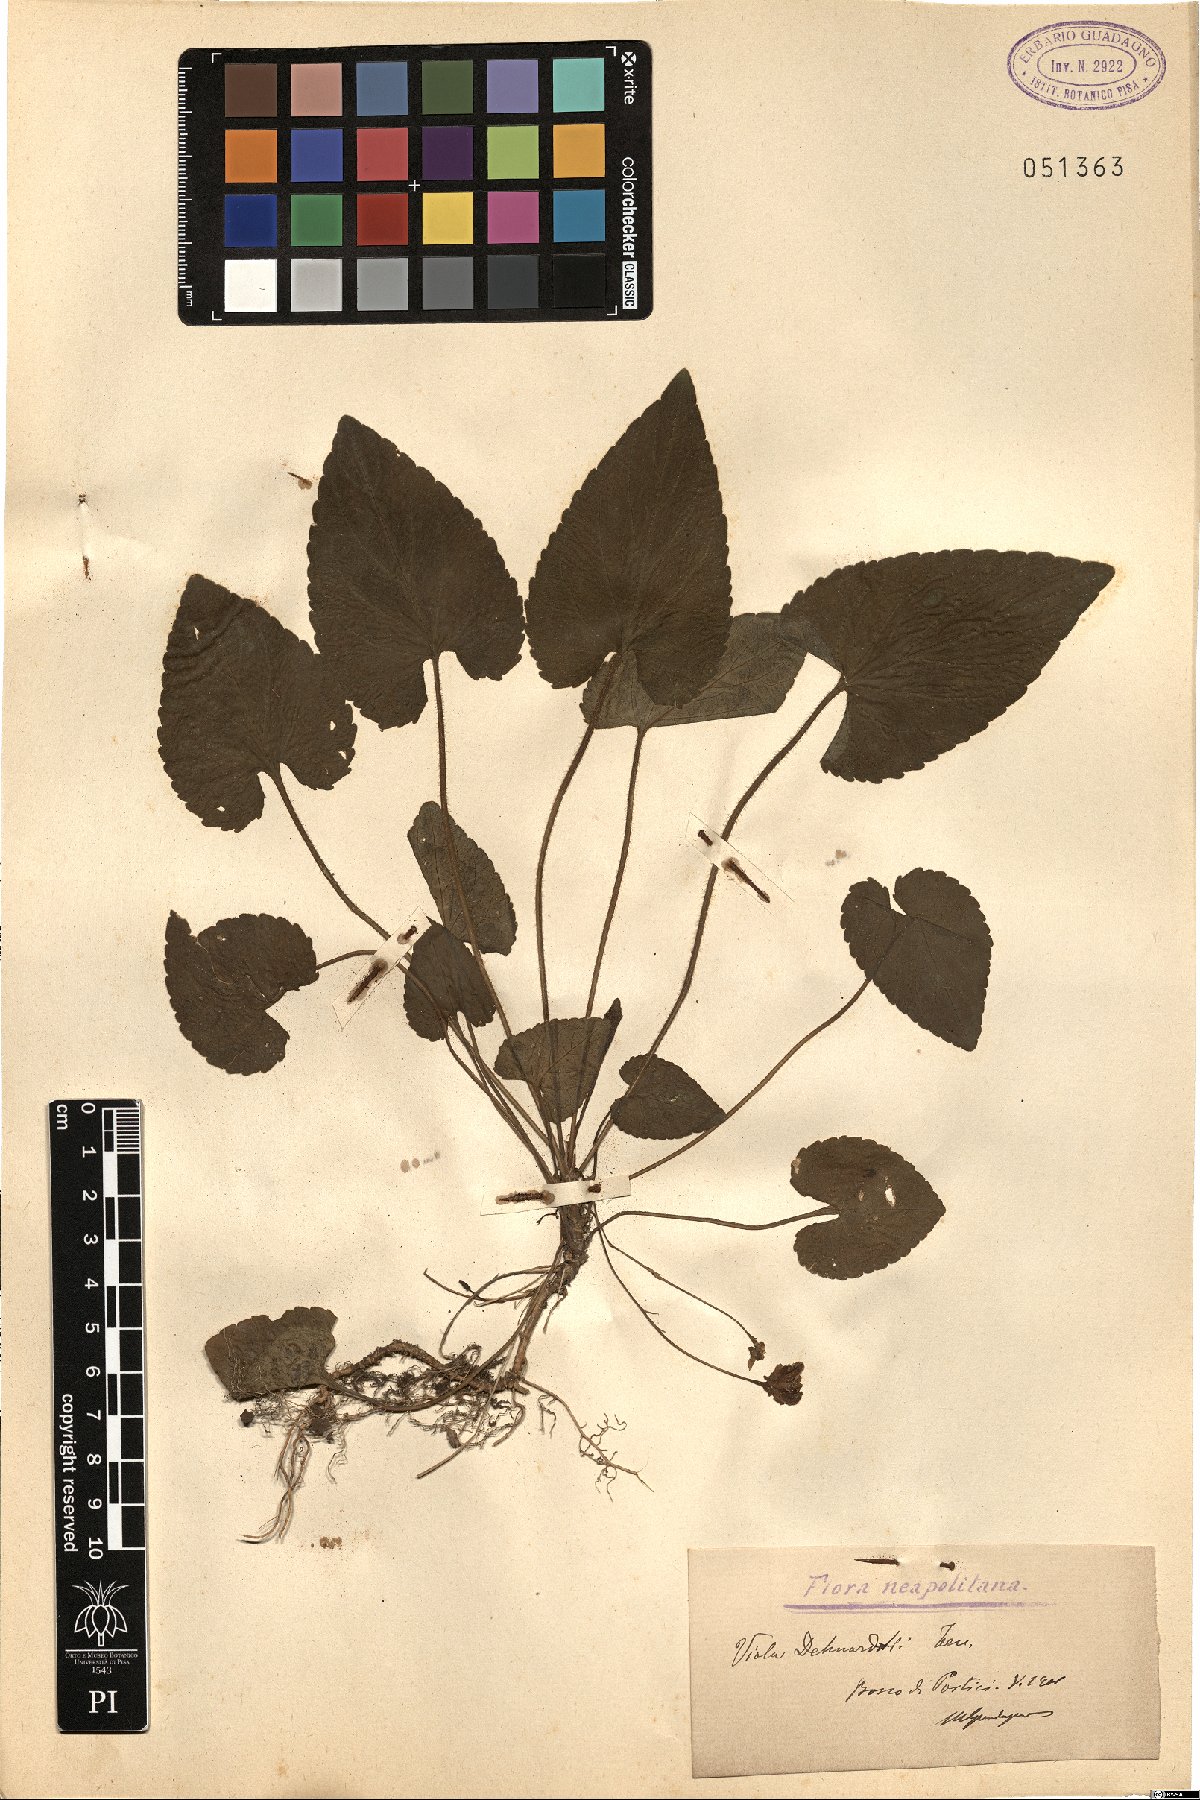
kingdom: Plantae
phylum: Tracheophyta
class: Magnoliopsida
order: Malpighiales
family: Violaceae
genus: Viola
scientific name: Viola alba
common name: White violet
